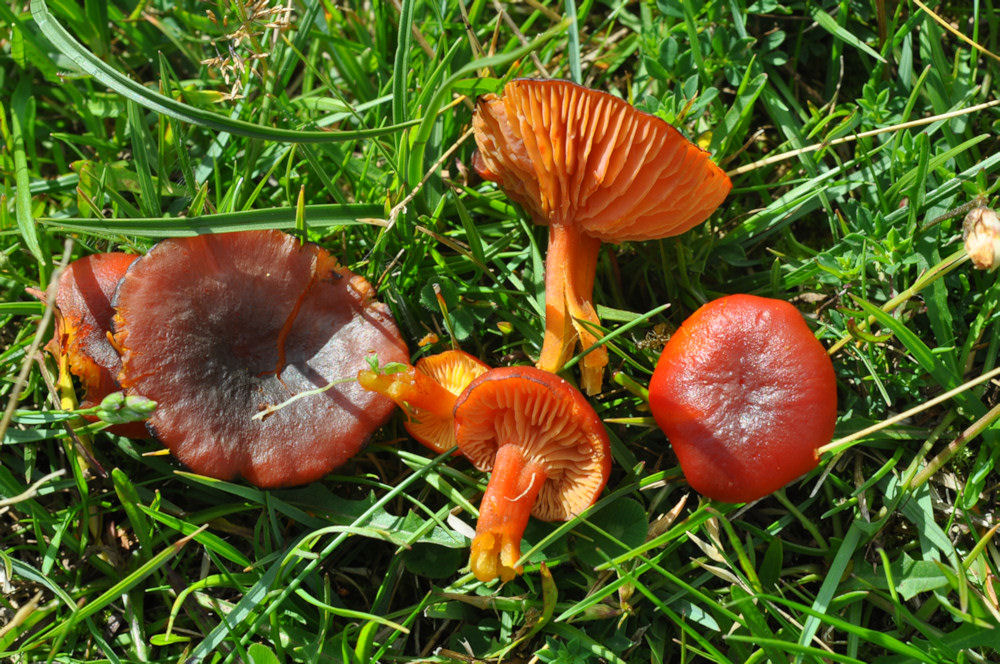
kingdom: Fungi
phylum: Basidiomycota
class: Agaricomycetes
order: Agaricales
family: Hygrophoraceae
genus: Hygrocybe
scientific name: Hygrocybe phaeococcinea
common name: sortdugget vokshat
